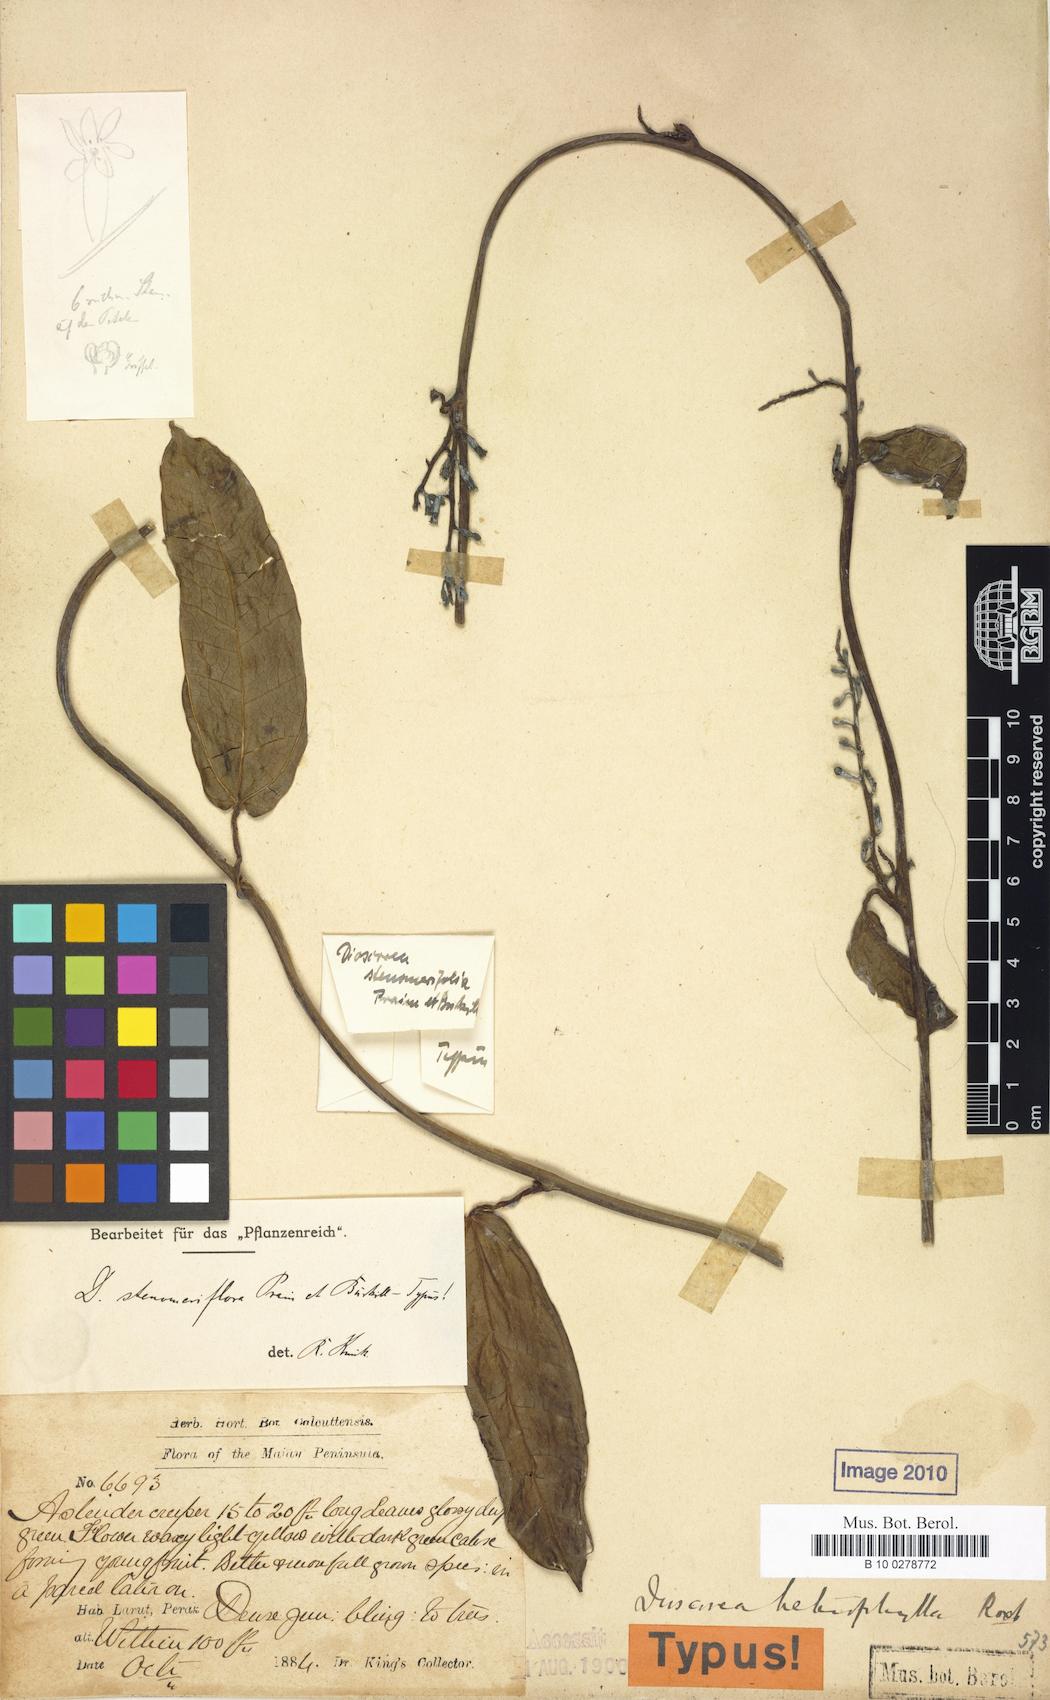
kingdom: Plantae
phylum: Tracheophyta
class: Liliopsida
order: Dioscoreales
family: Dioscoreaceae
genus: Dioscorea
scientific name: Dioscorea stenomeriflora
